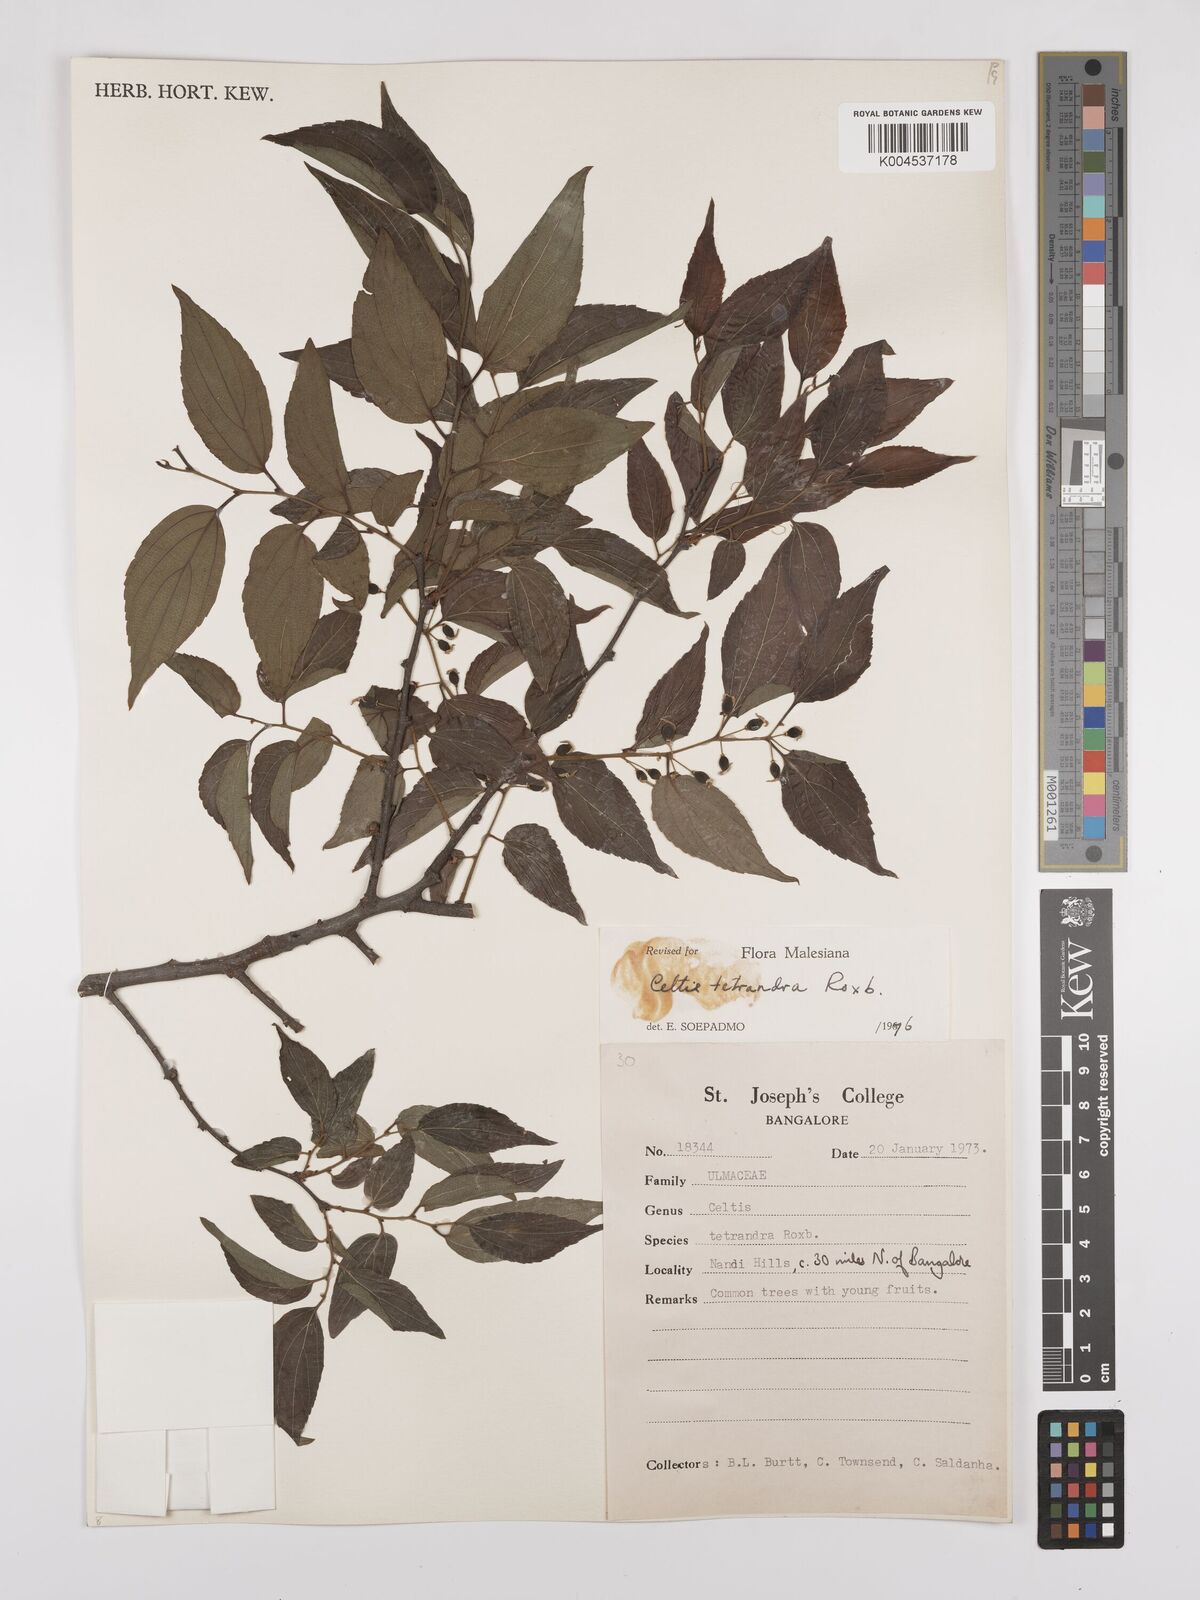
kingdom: Plantae
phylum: Tracheophyta
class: Magnoliopsida
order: Rosales
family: Cannabaceae
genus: Celtis
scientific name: Celtis tetrandra
